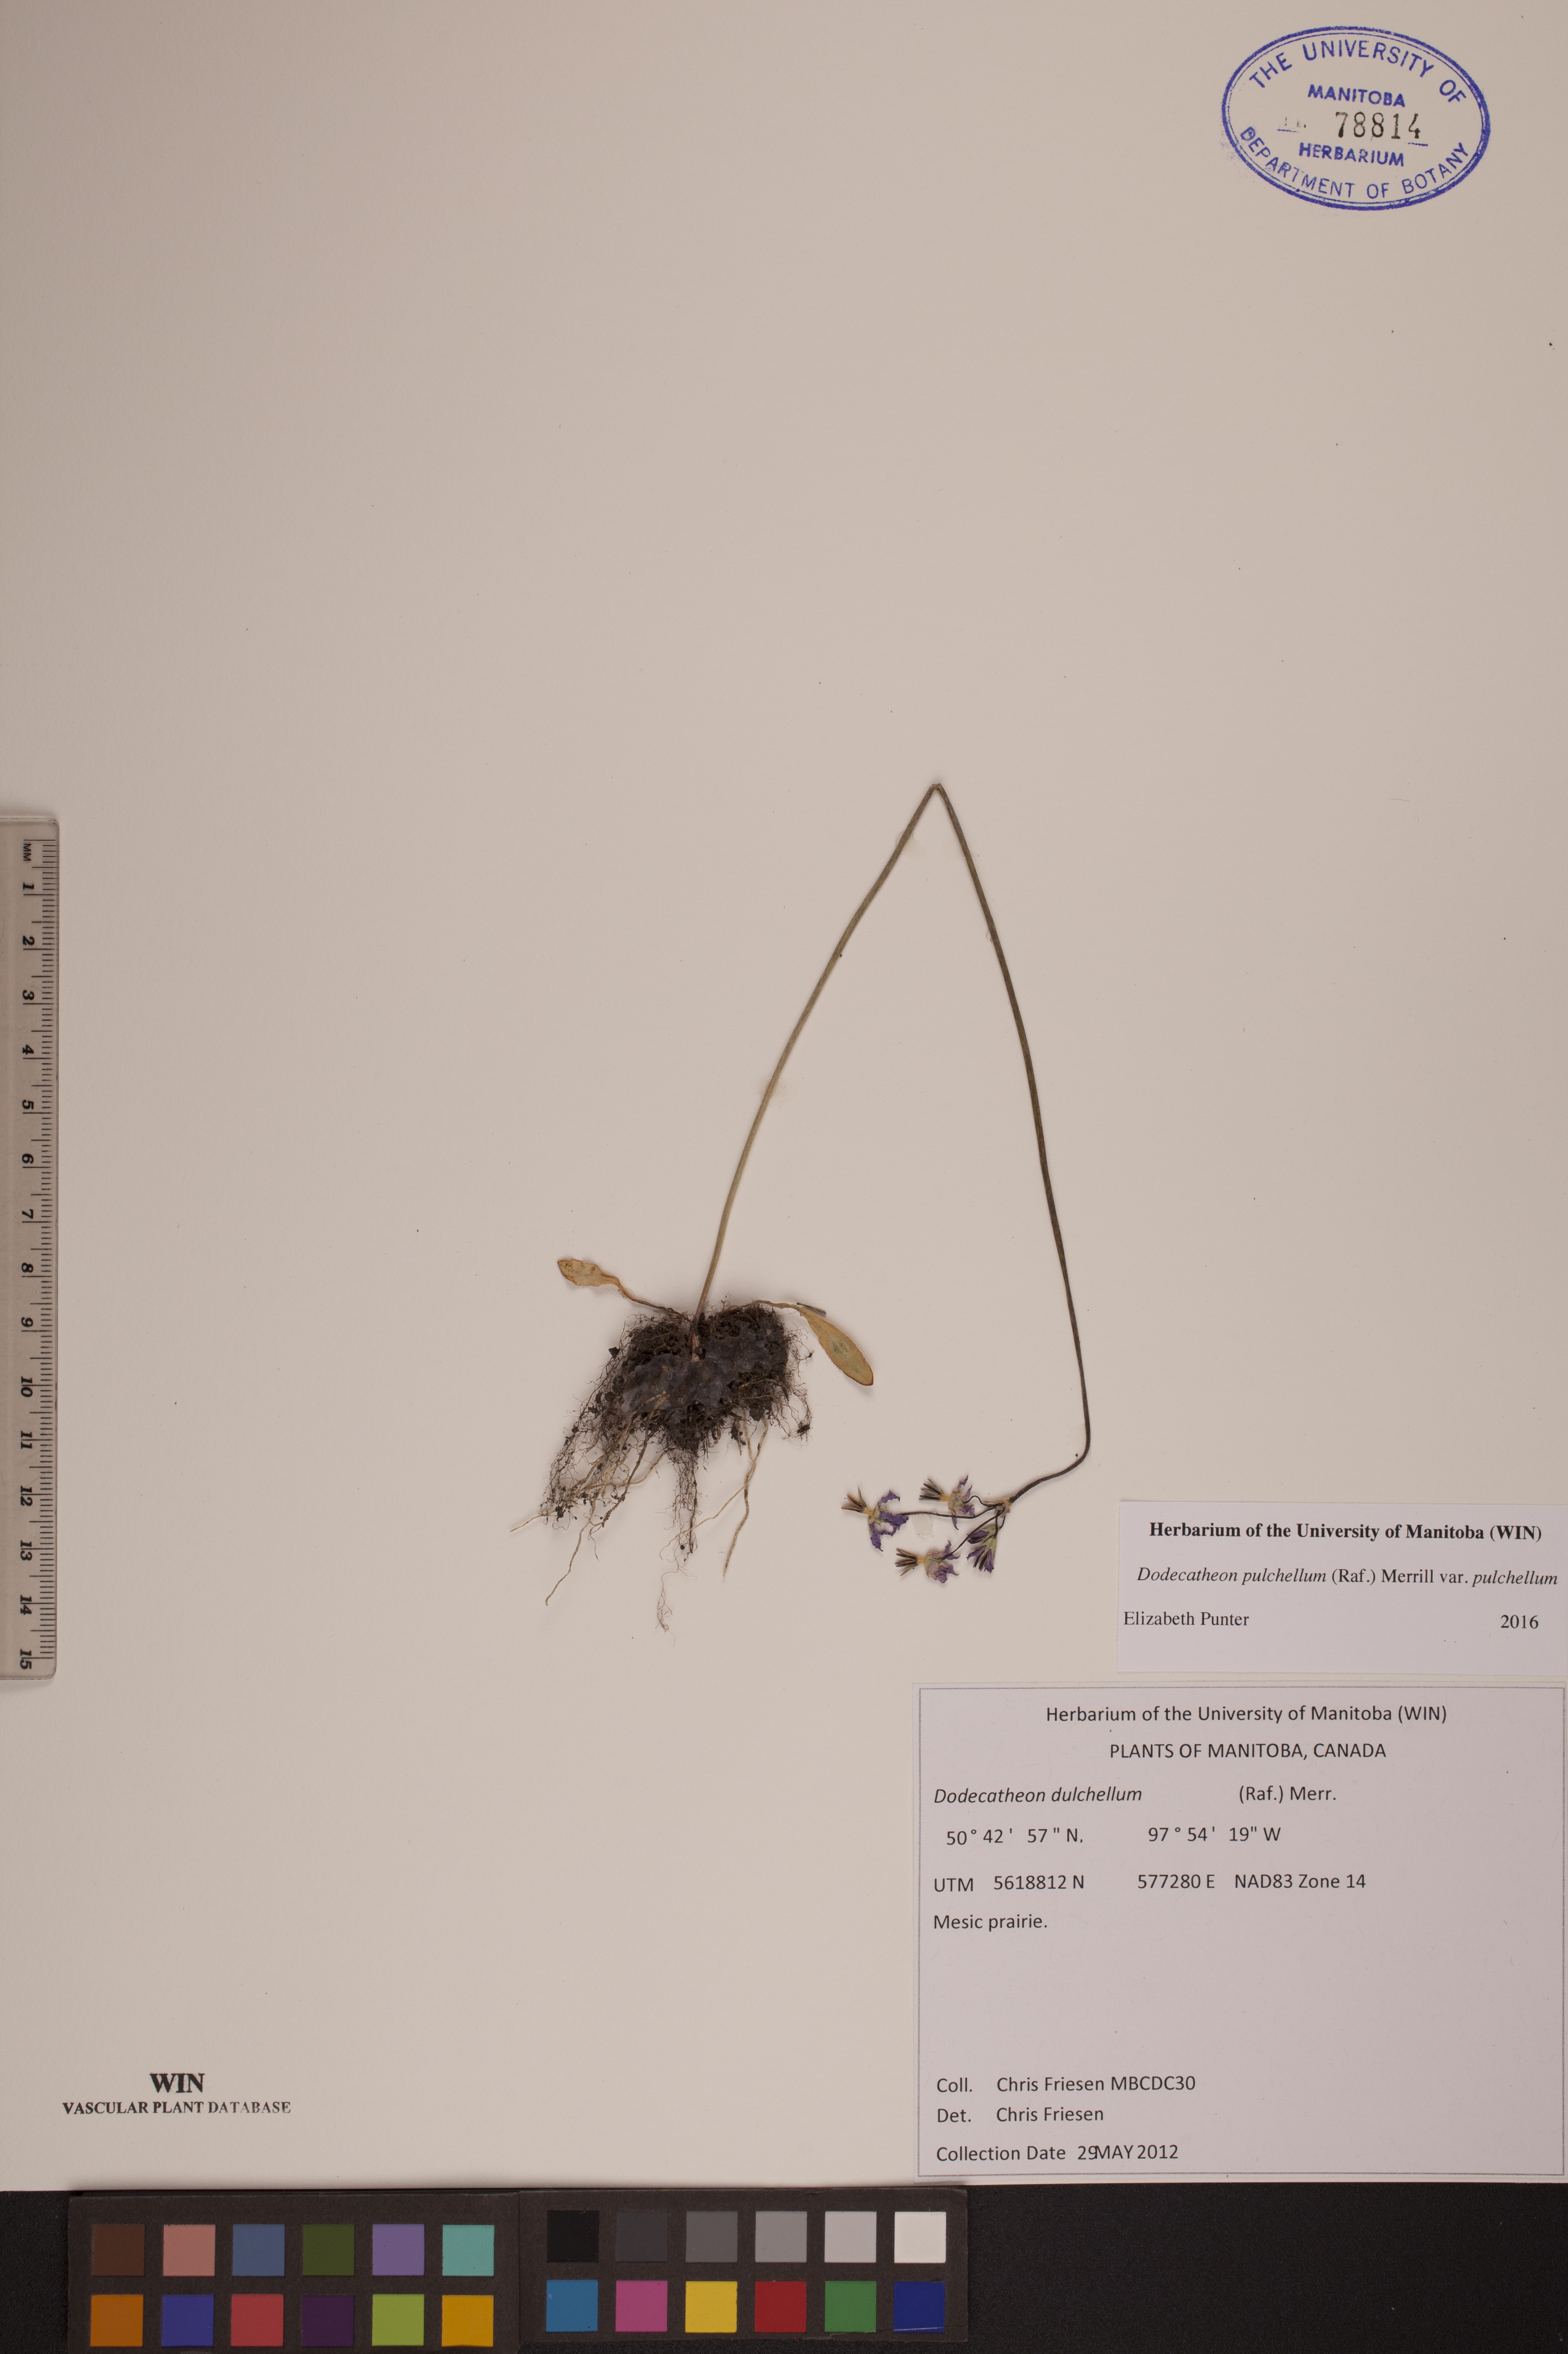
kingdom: Plantae
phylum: Tracheophyta
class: Magnoliopsida
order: Ericales
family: Primulaceae
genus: Dodecatheon
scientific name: Dodecatheon pulchellum
